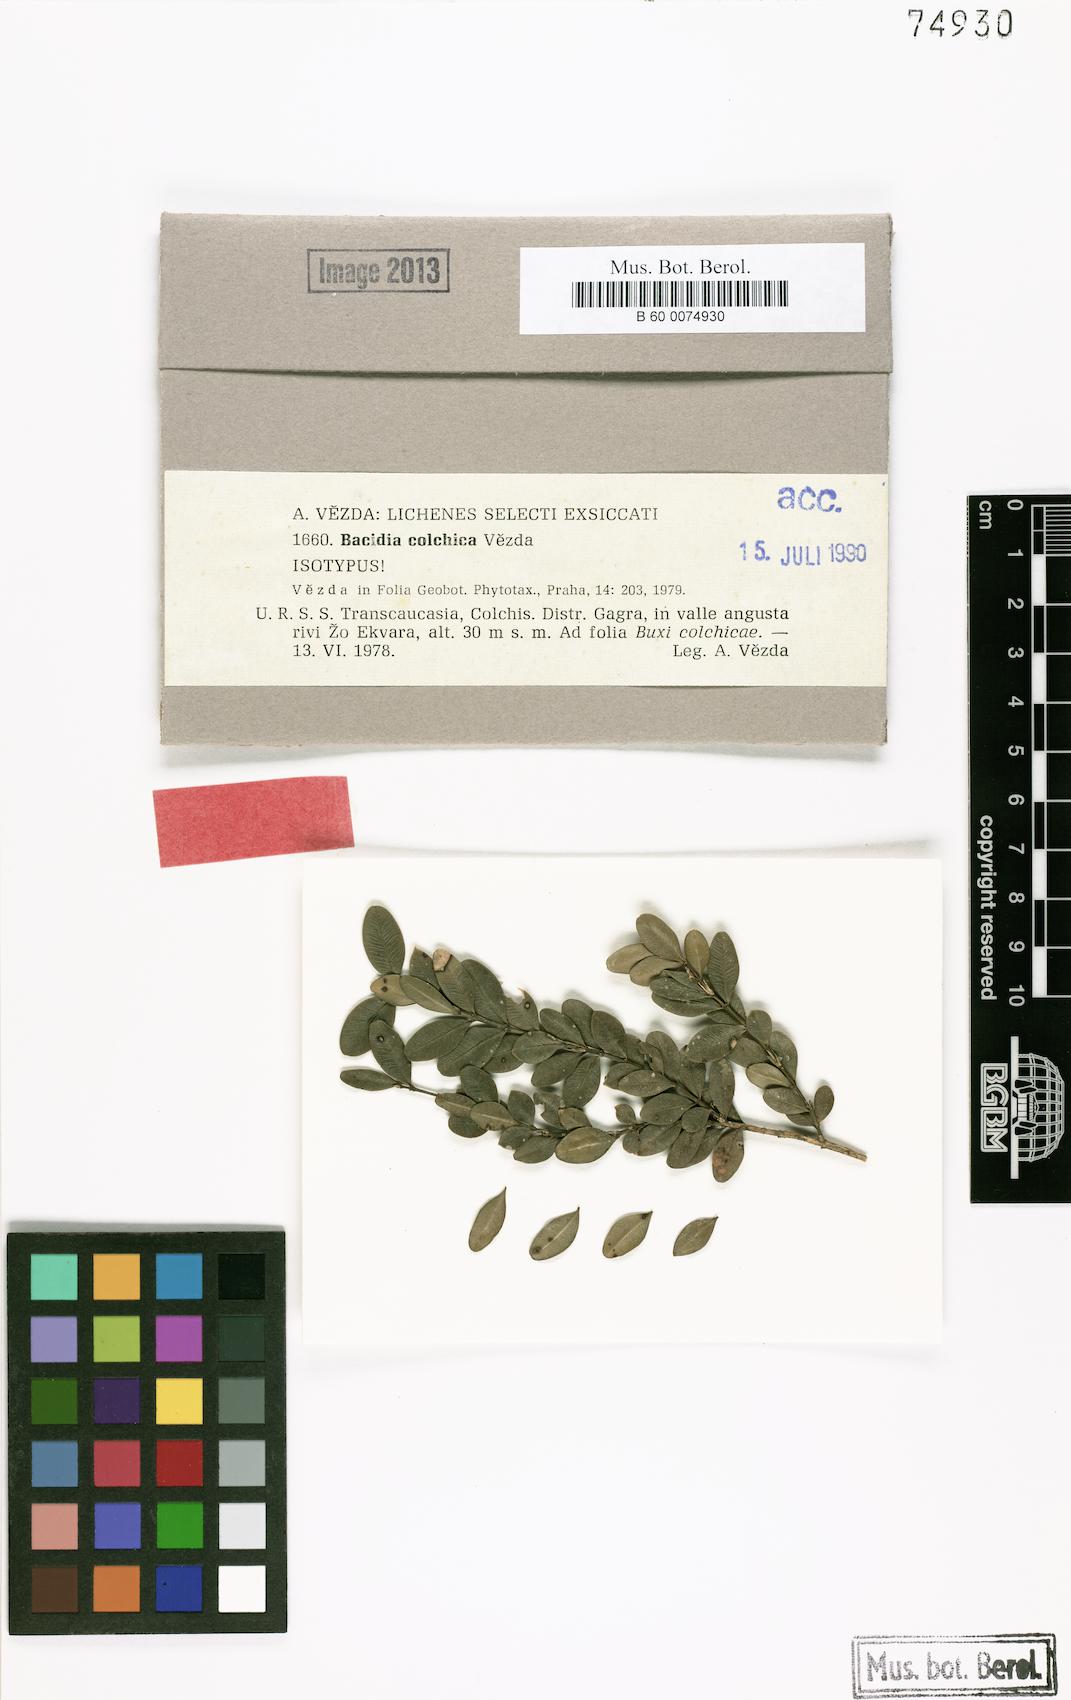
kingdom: Fungi
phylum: Ascomycota
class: Lecanoromycetes
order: Lecanorales
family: Byssolomataceae
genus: Fellhanera
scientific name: Fellhanera colchica
